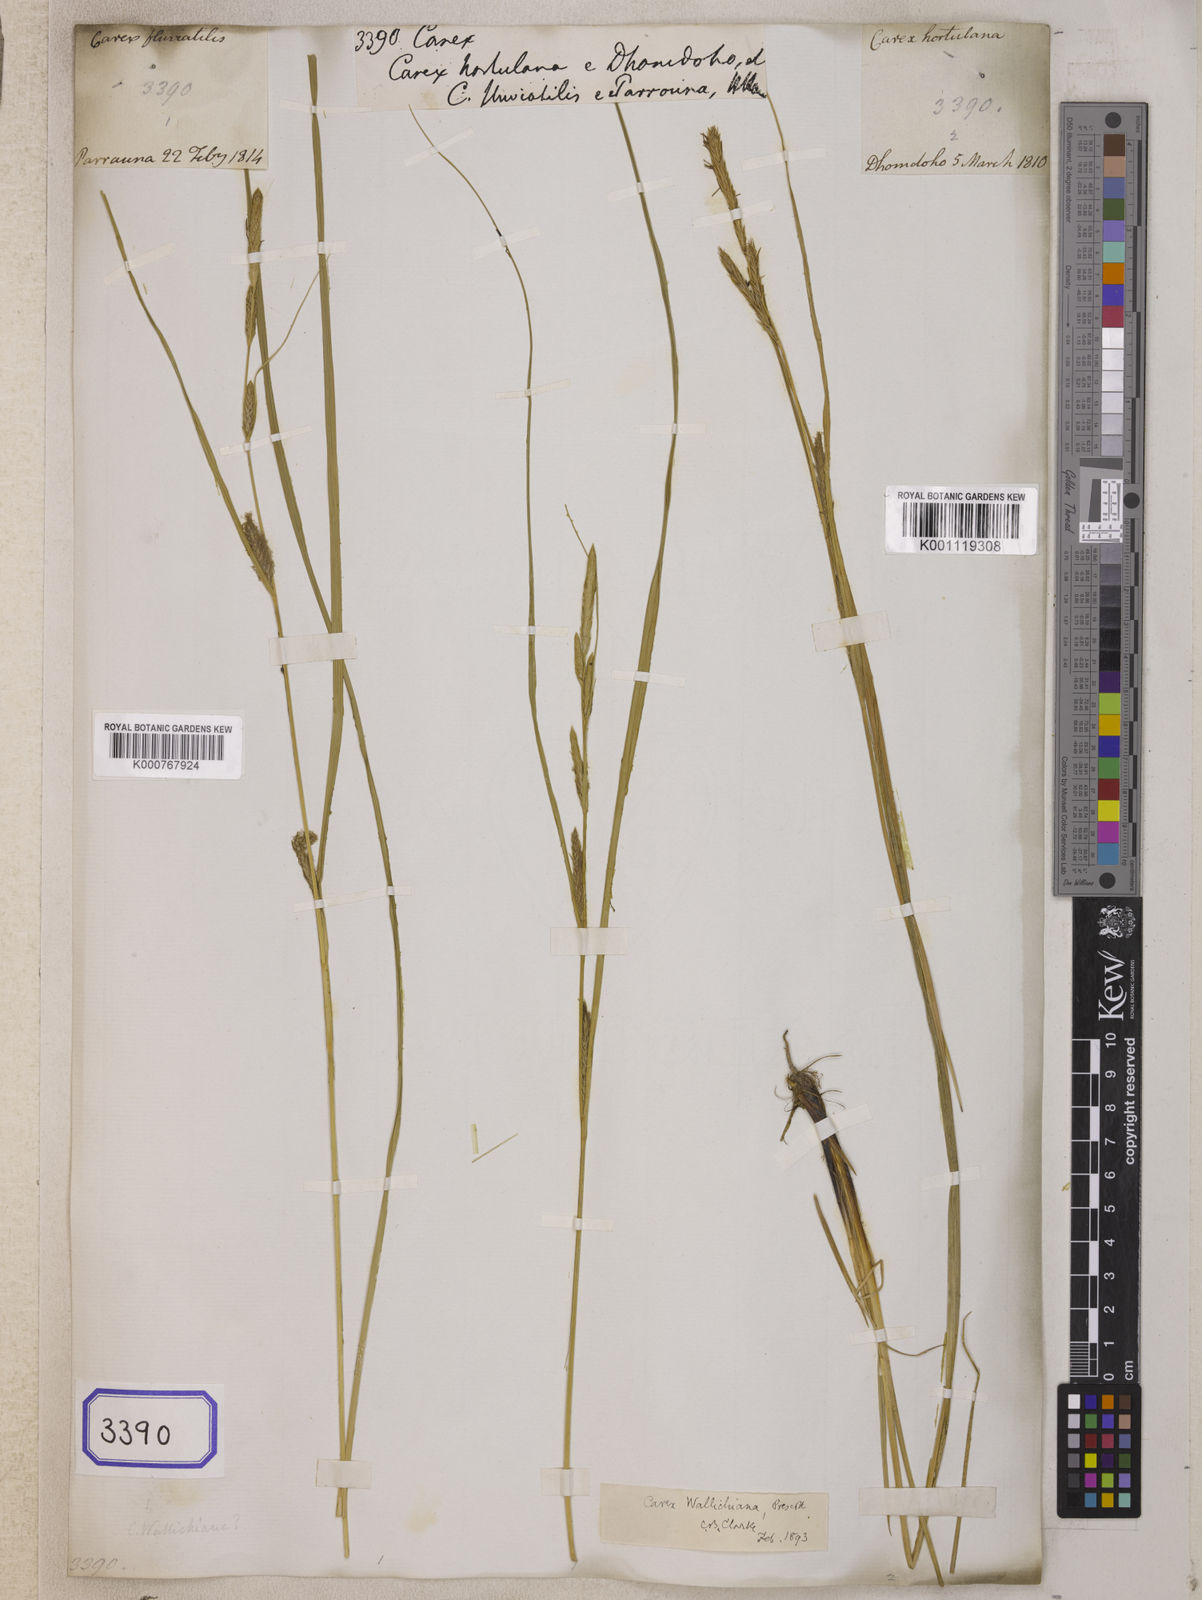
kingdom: Plantae
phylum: Tracheophyta
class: Liliopsida
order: Poales
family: Cyperaceae
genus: Carex
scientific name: Carex
